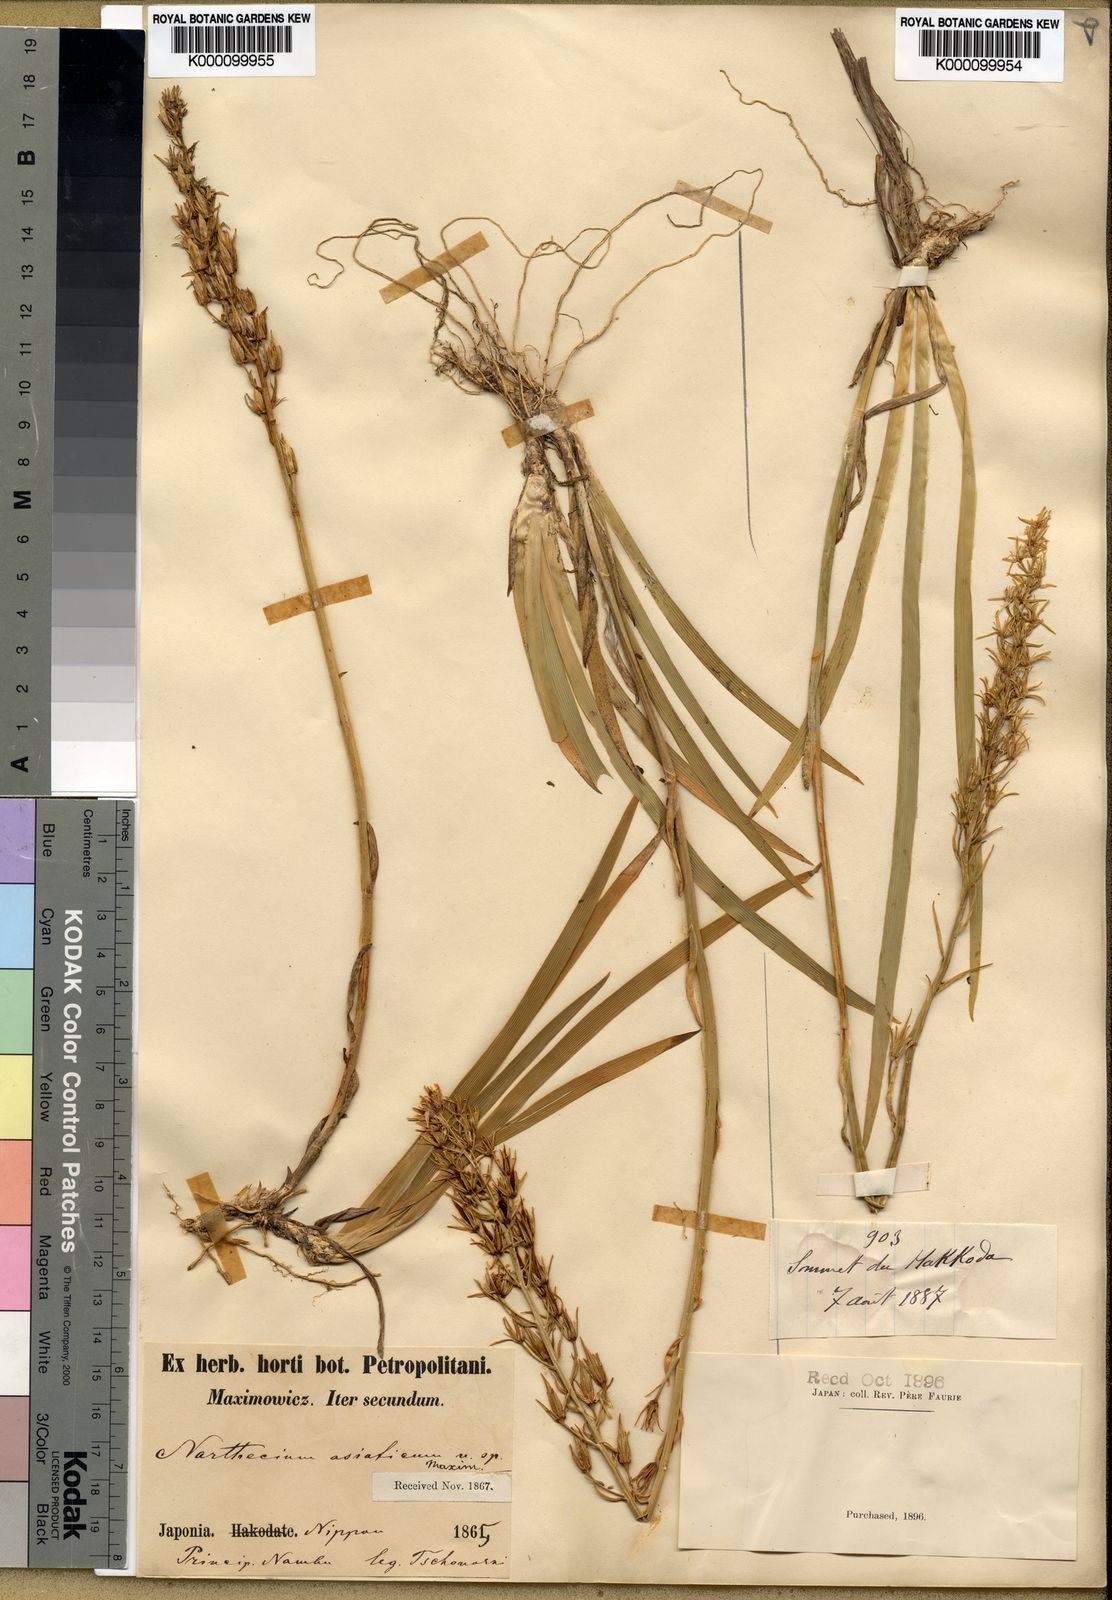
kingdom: Plantae
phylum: Tracheophyta
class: Liliopsida
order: Dioscoreales
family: Nartheciaceae
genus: Narthecium
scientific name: Narthecium asiaticum
